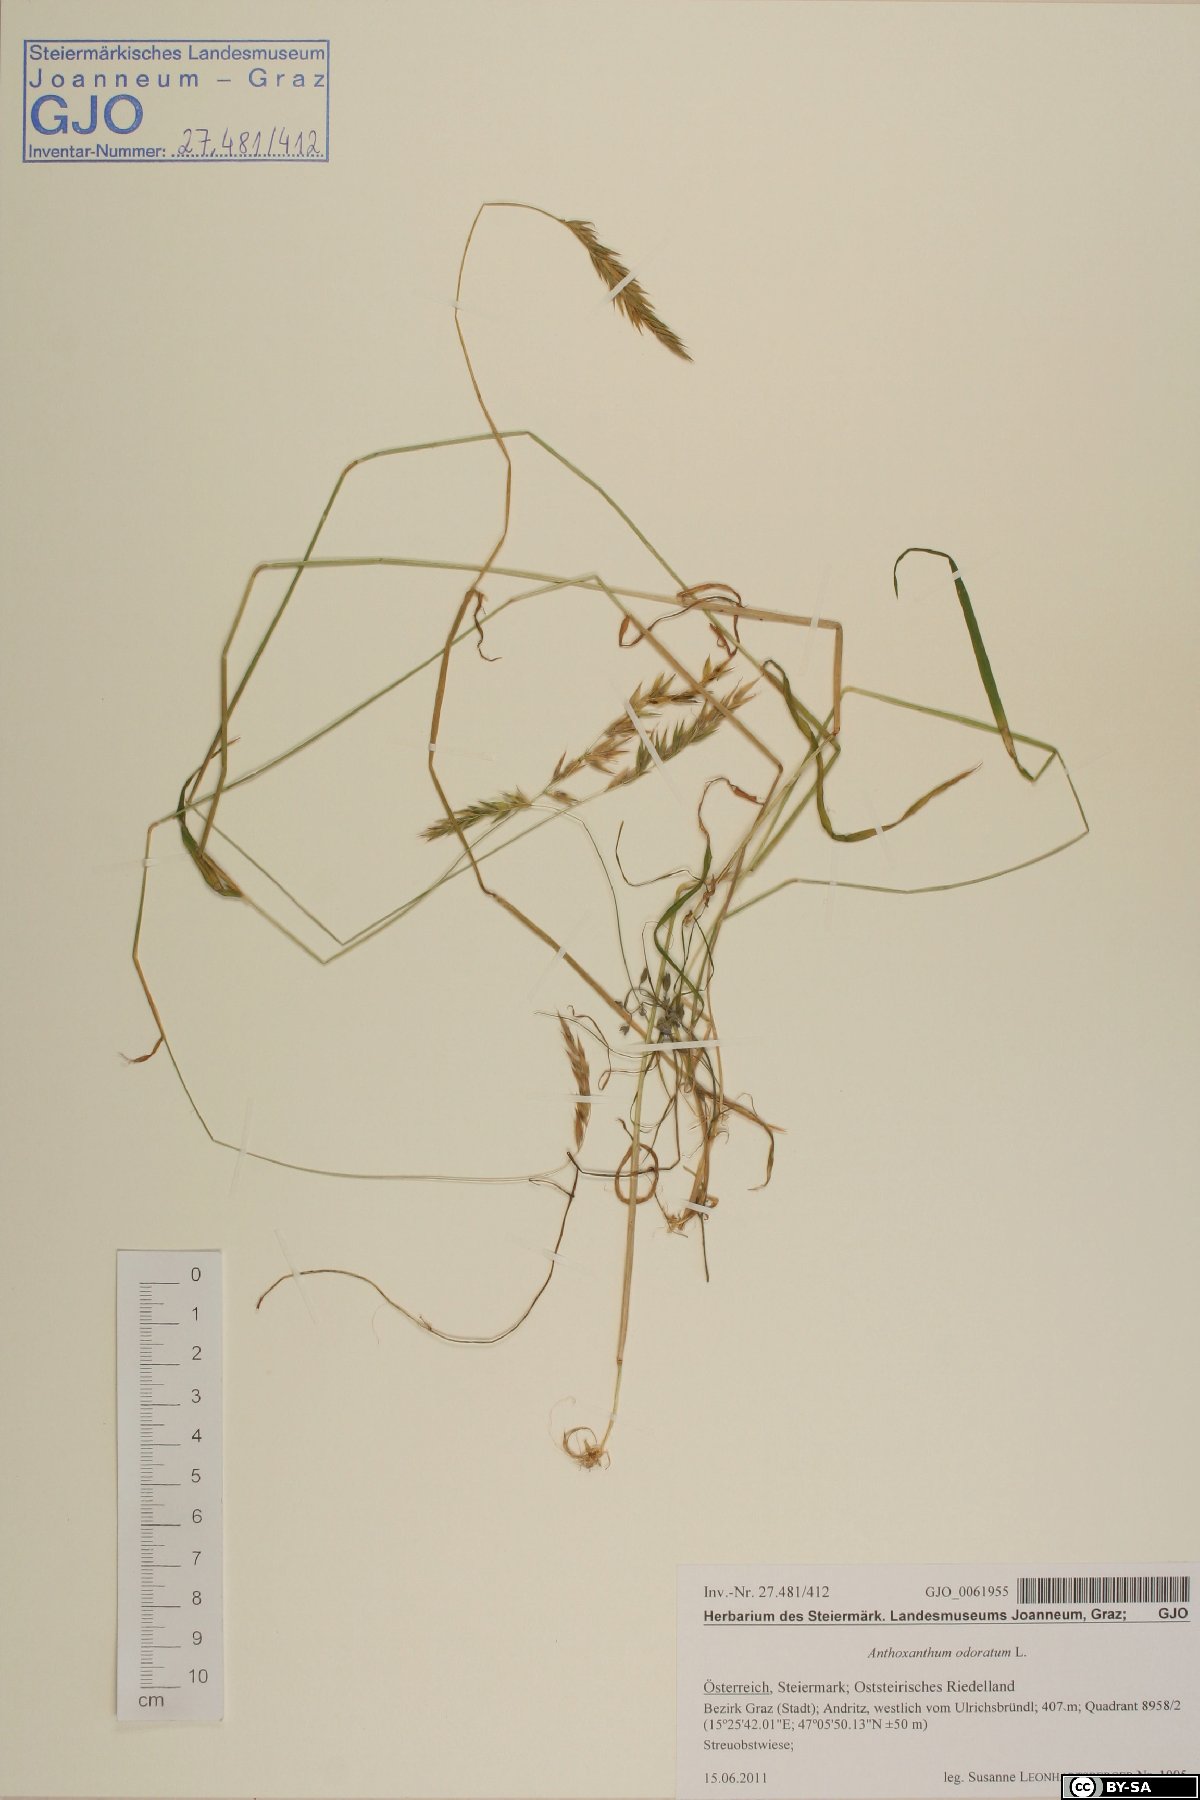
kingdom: Plantae
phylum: Tracheophyta
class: Liliopsida
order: Poales
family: Poaceae
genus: Anthoxanthum
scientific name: Anthoxanthum odoratum
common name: Sweet vernalgrass
